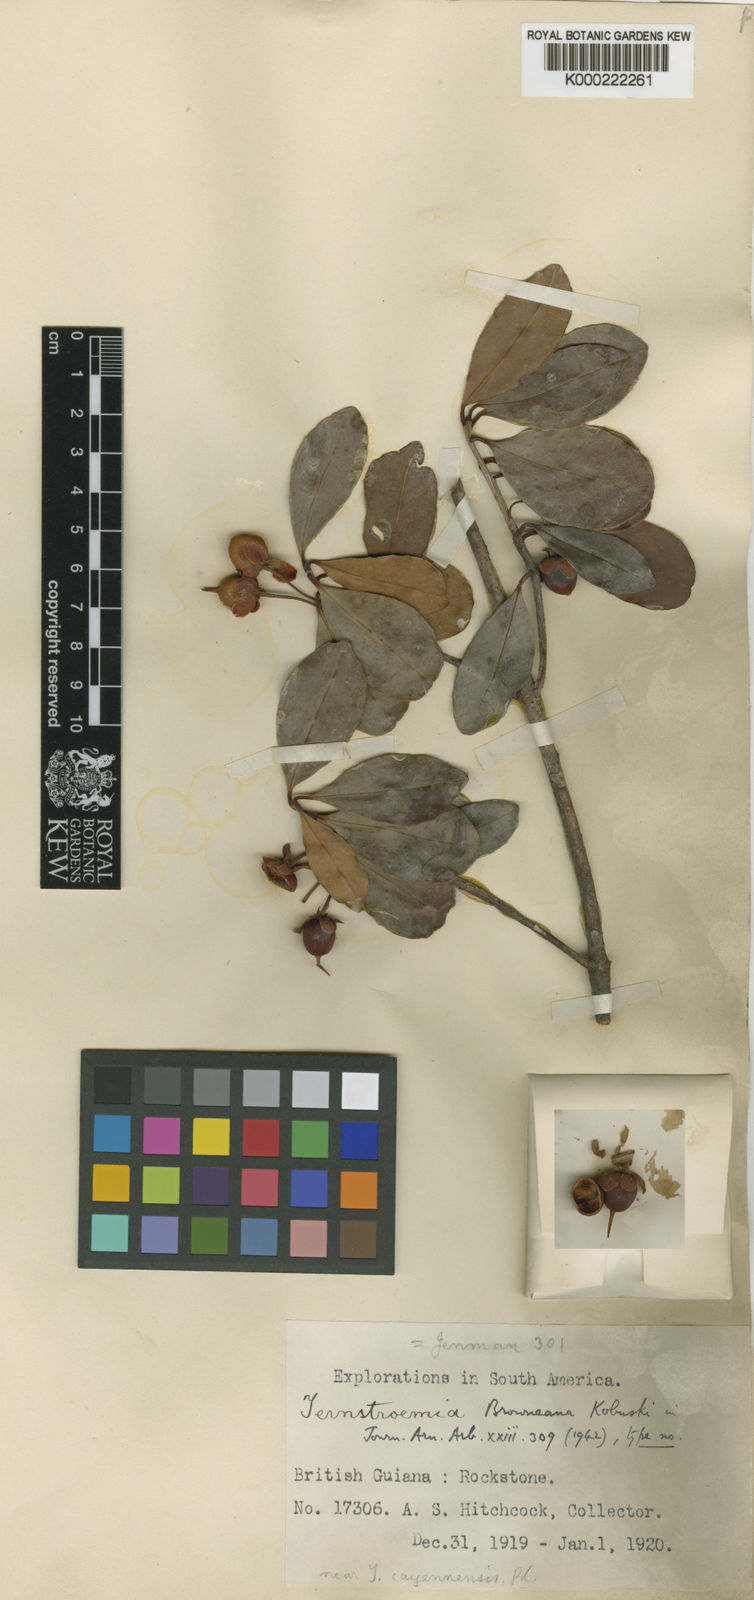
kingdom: Plantae
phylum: Tracheophyta
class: Magnoliopsida
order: Ericales
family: Pentaphylacaceae
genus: Ternstroemia
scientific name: Ternstroemia delicatula
